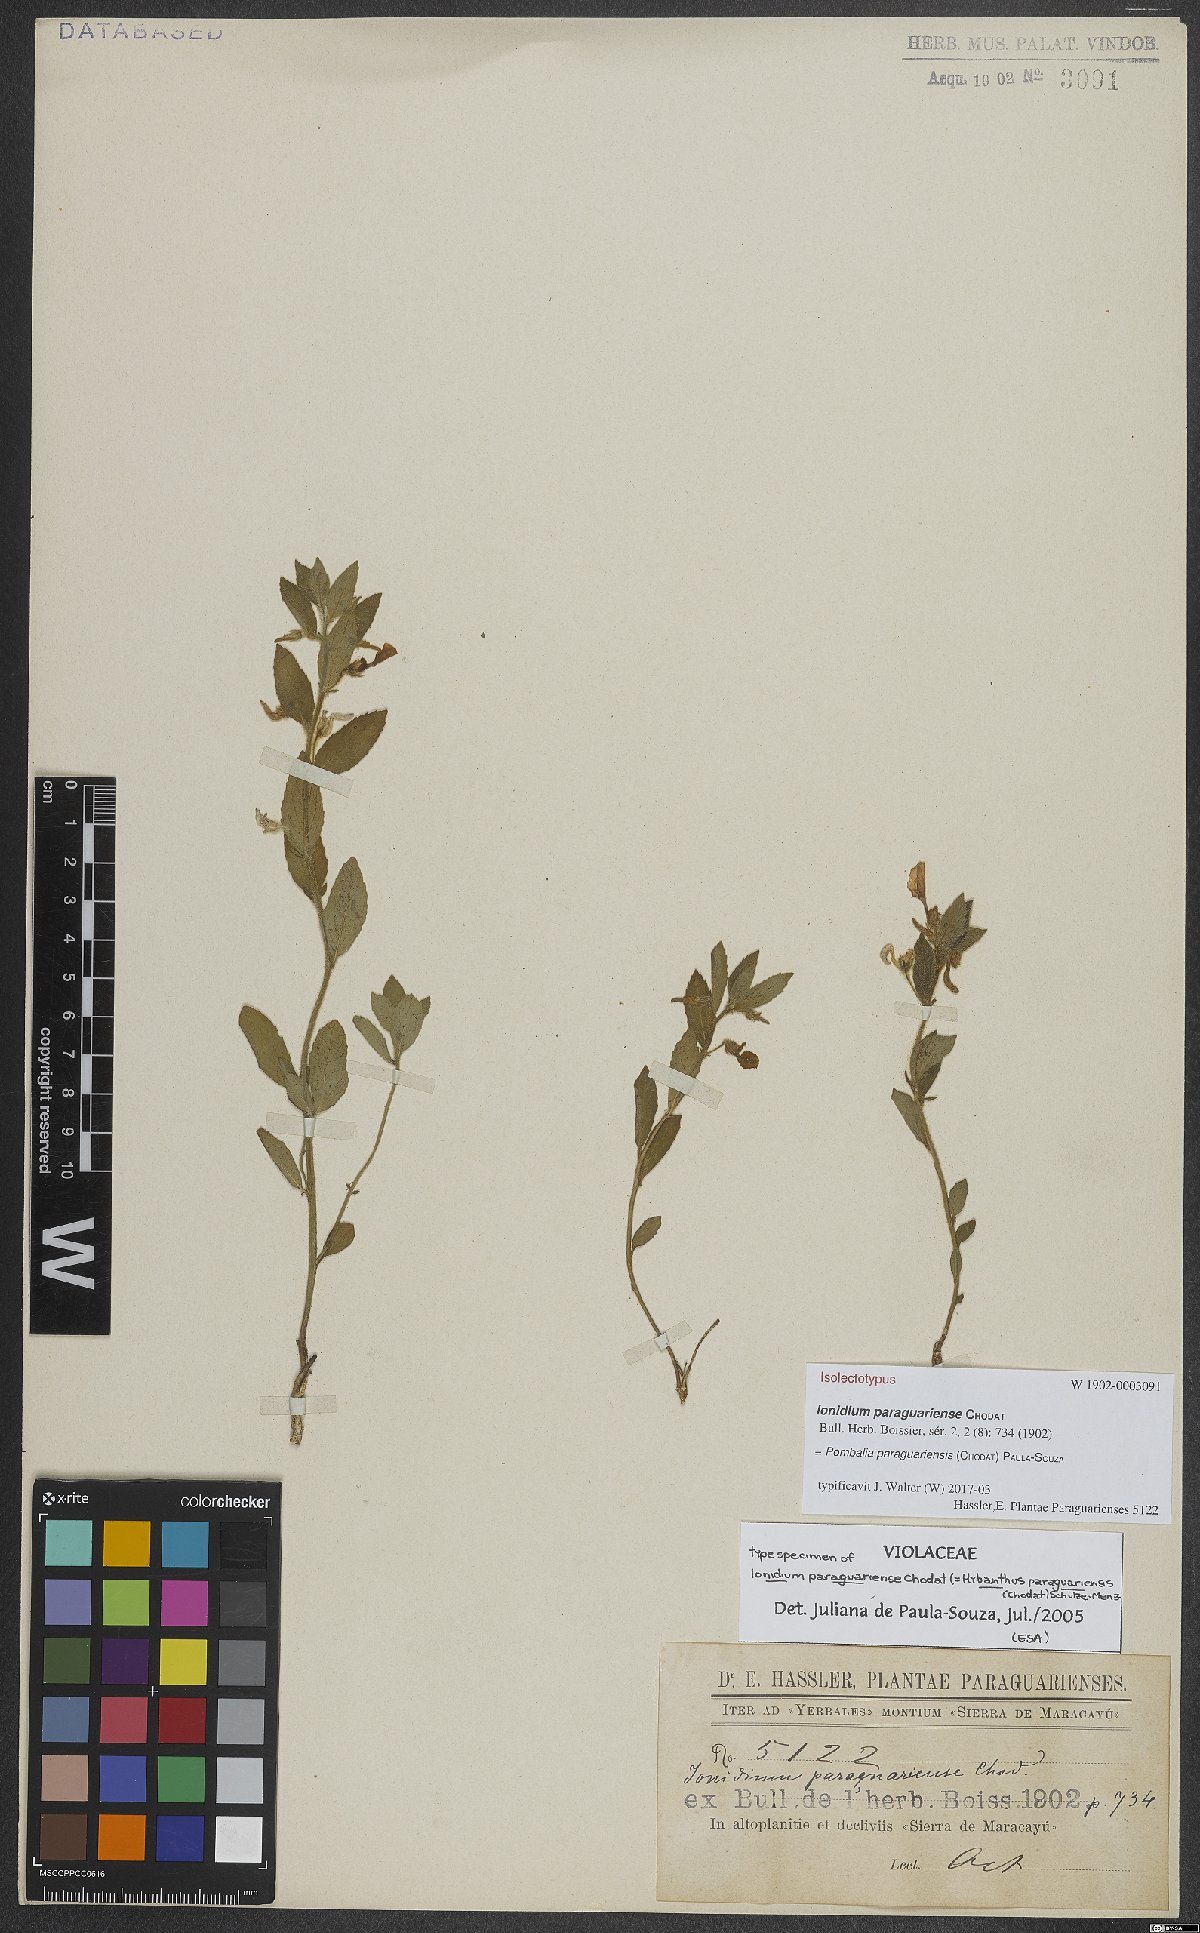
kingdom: Plantae
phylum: Tracheophyta
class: Magnoliopsida
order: Malpighiales
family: Violaceae
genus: Pombalia
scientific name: Pombalia paraguariensis
